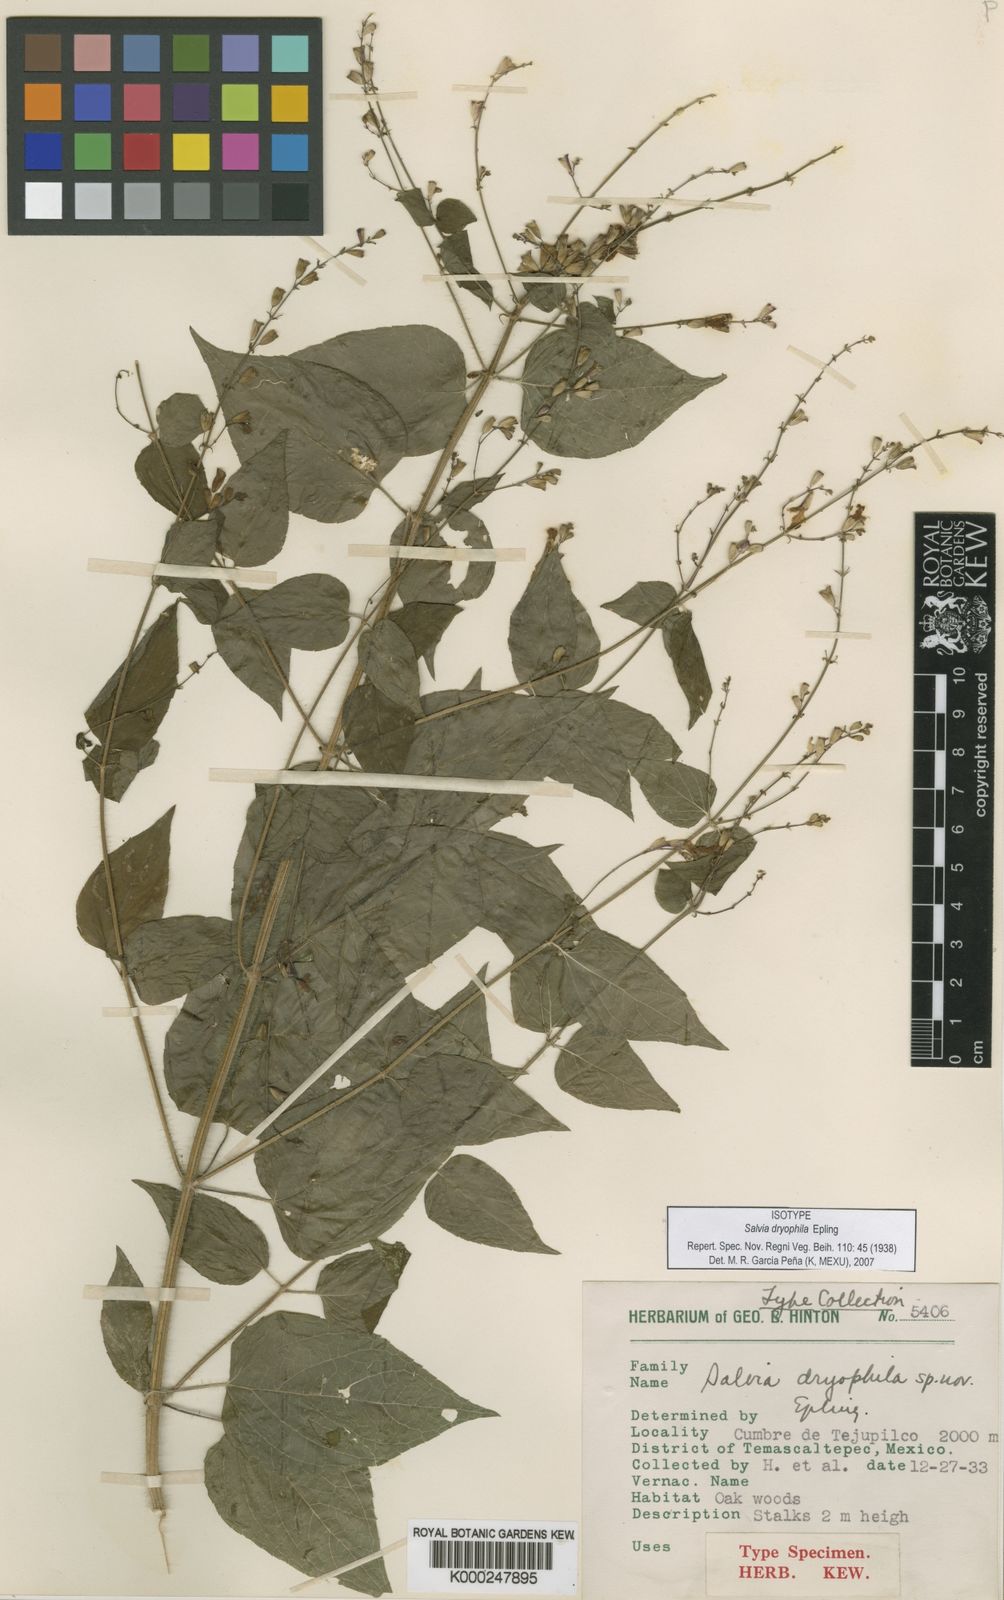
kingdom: Plantae
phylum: Tracheophyta
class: Magnoliopsida
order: Lamiales
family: Lamiaceae
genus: Salvia
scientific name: Salvia dryophila
